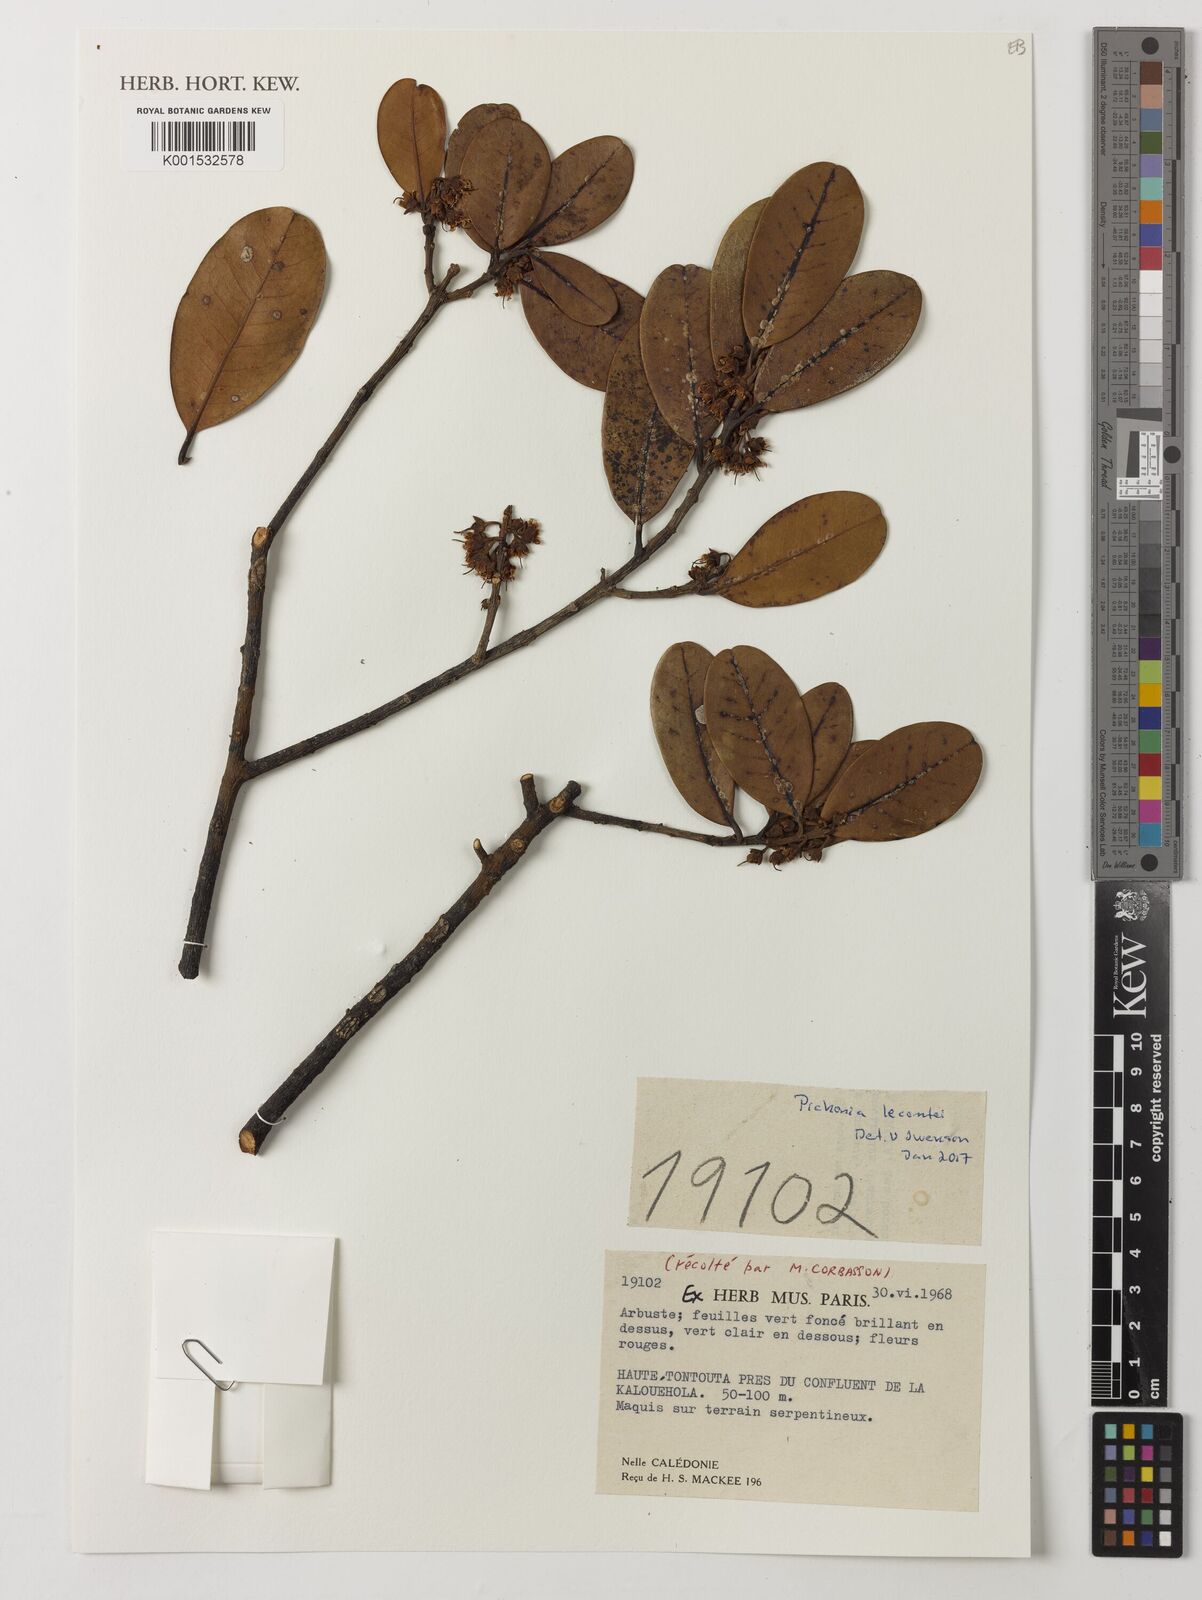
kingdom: Plantae
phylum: Tracheophyta
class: Magnoliopsida
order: Ericales
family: Sapotaceae
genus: Pichonia
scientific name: Pichonia lecomtei
